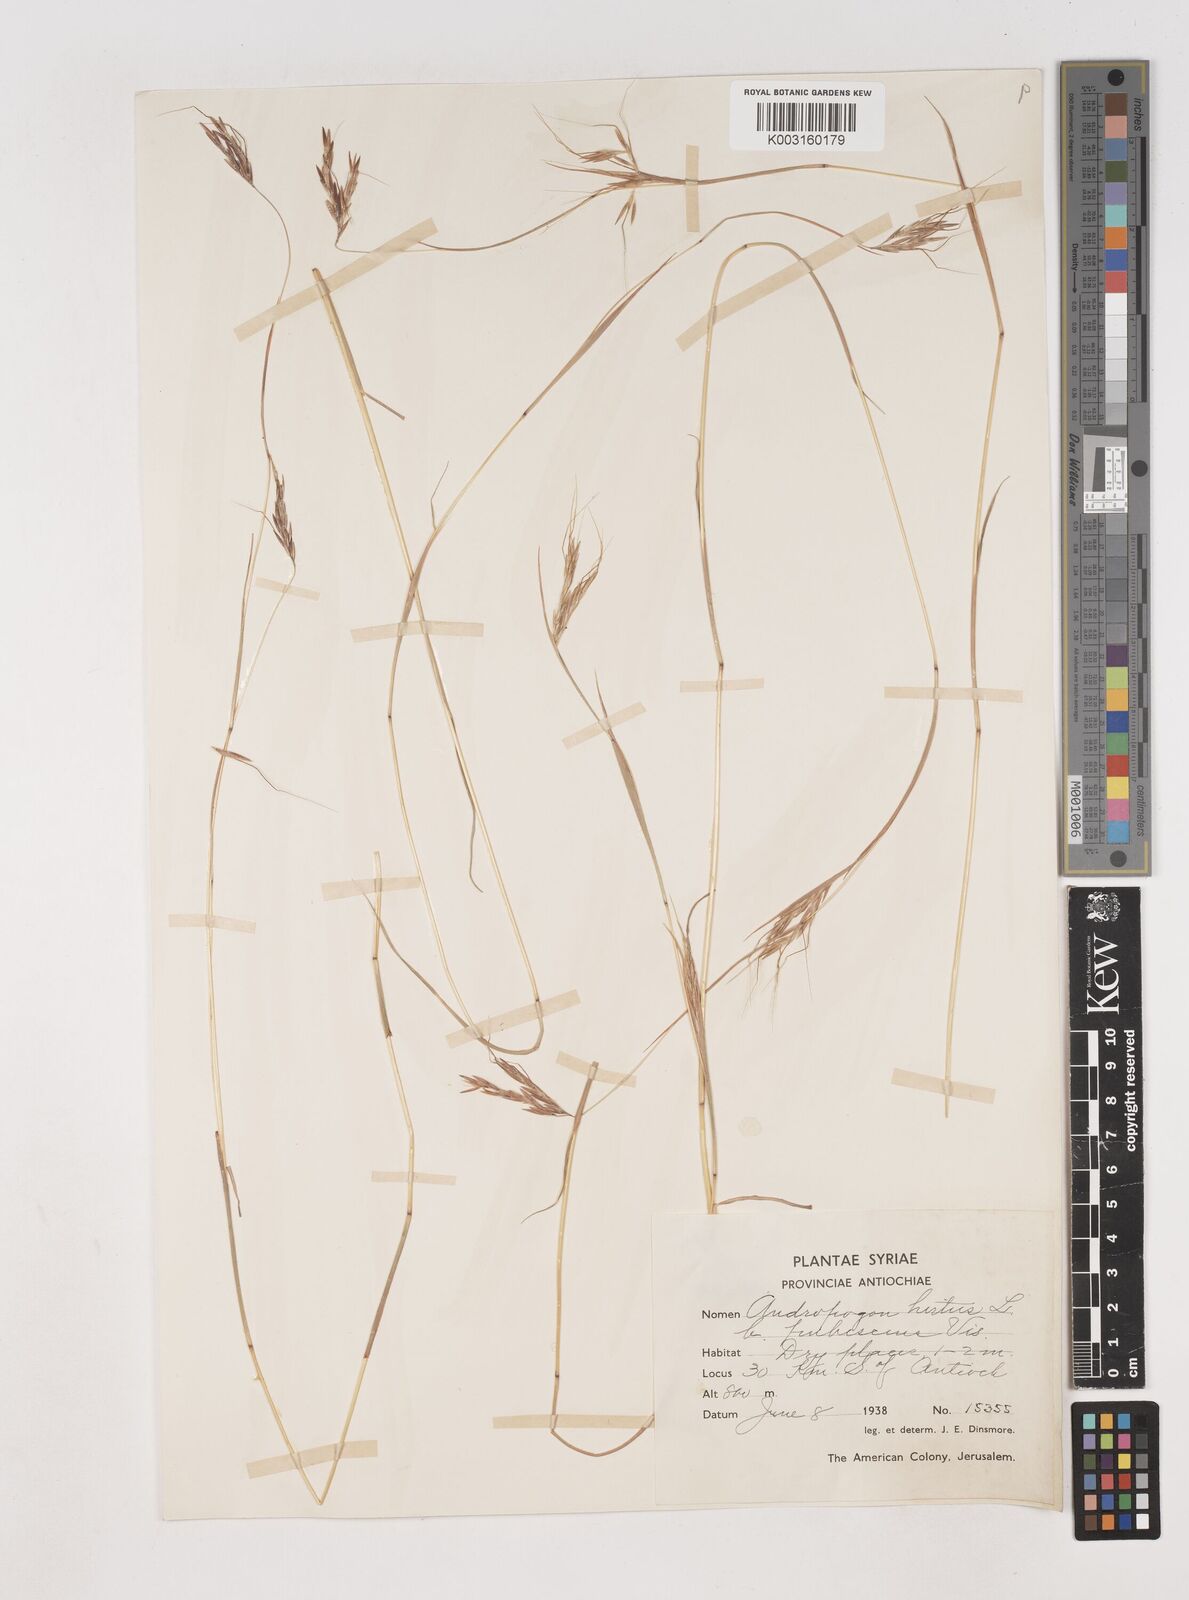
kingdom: Plantae
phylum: Tracheophyta
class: Liliopsida
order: Poales
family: Poaceae
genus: Hyparrhenia
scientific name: Hyparrhenia hirta
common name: Thatching grass
